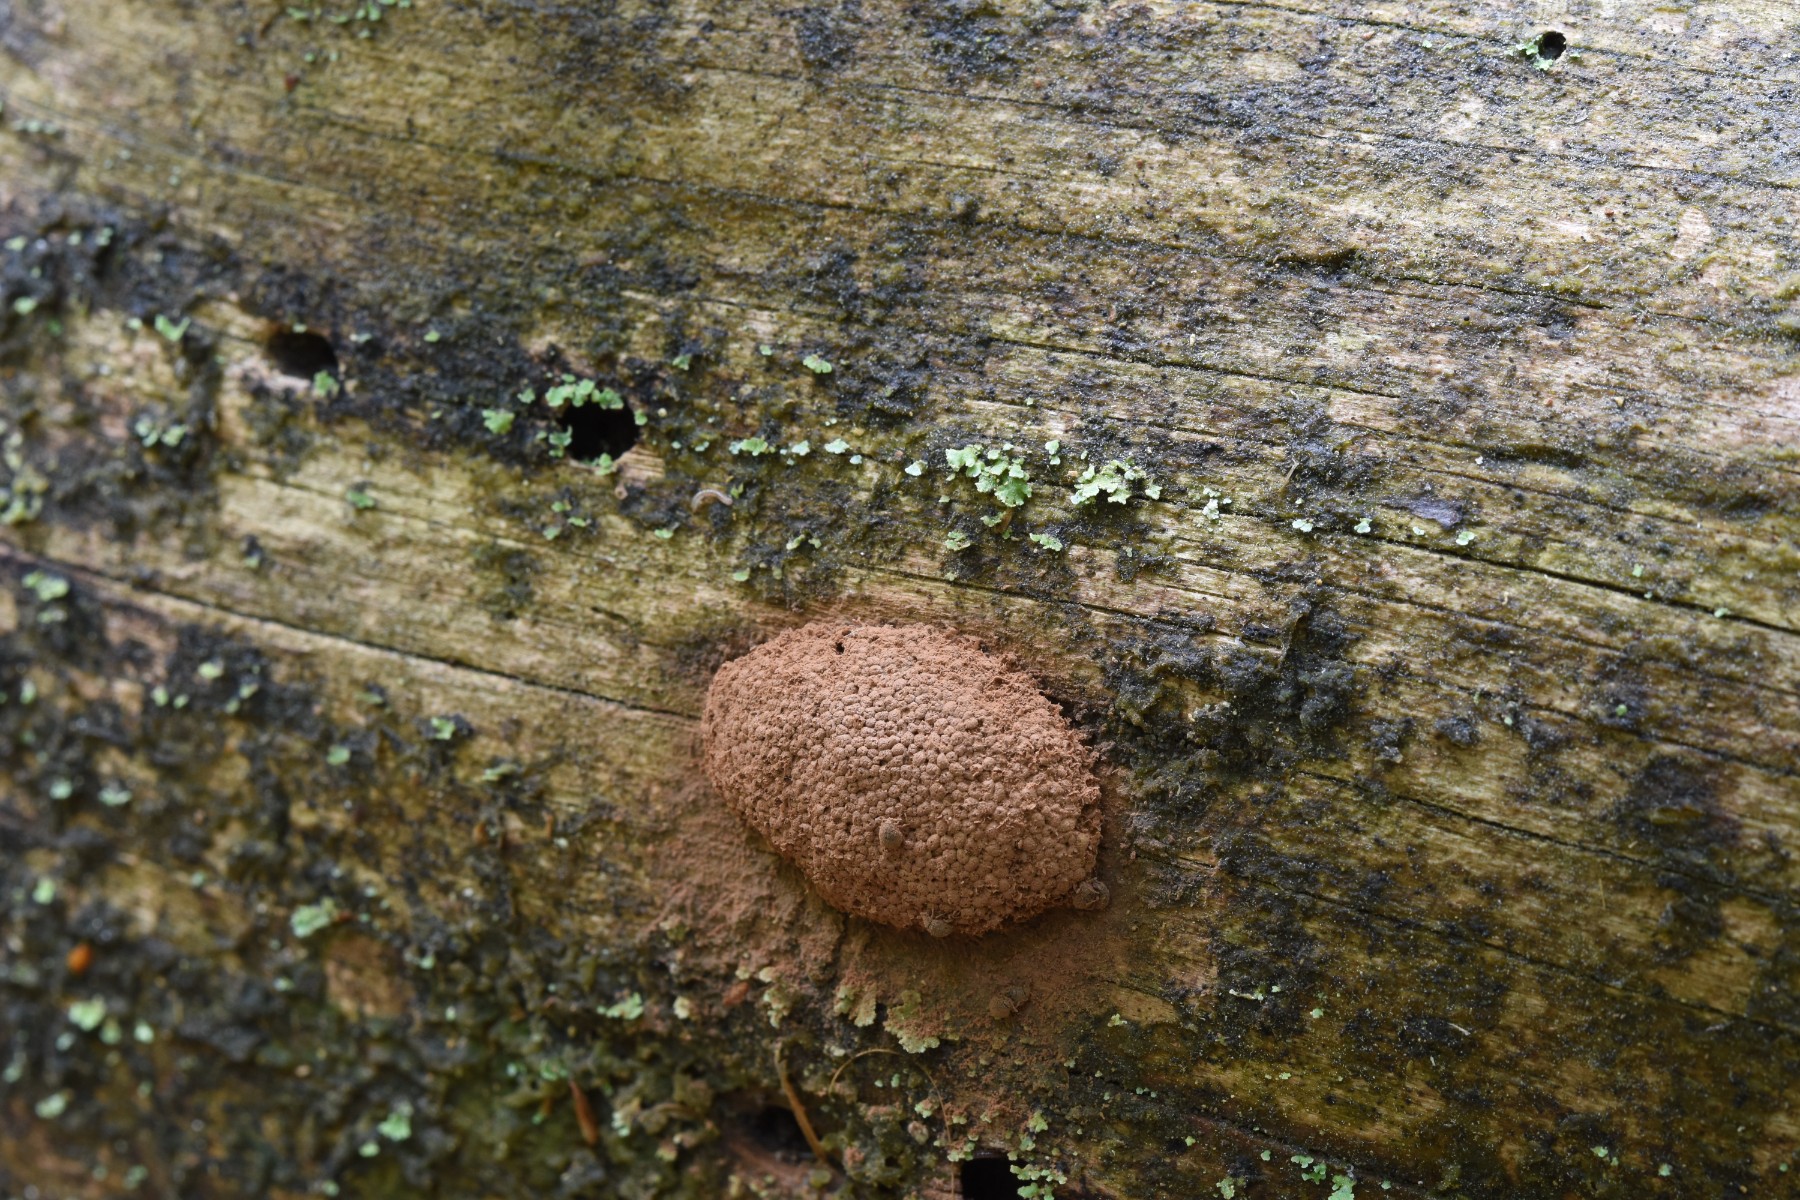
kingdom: Protozoa
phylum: Mycetozoa
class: Myxomycetes
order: Cribrariales
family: Tubiferaceae
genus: Tubifera
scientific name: Tubifera ferruginosa
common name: kanel-støvrør
